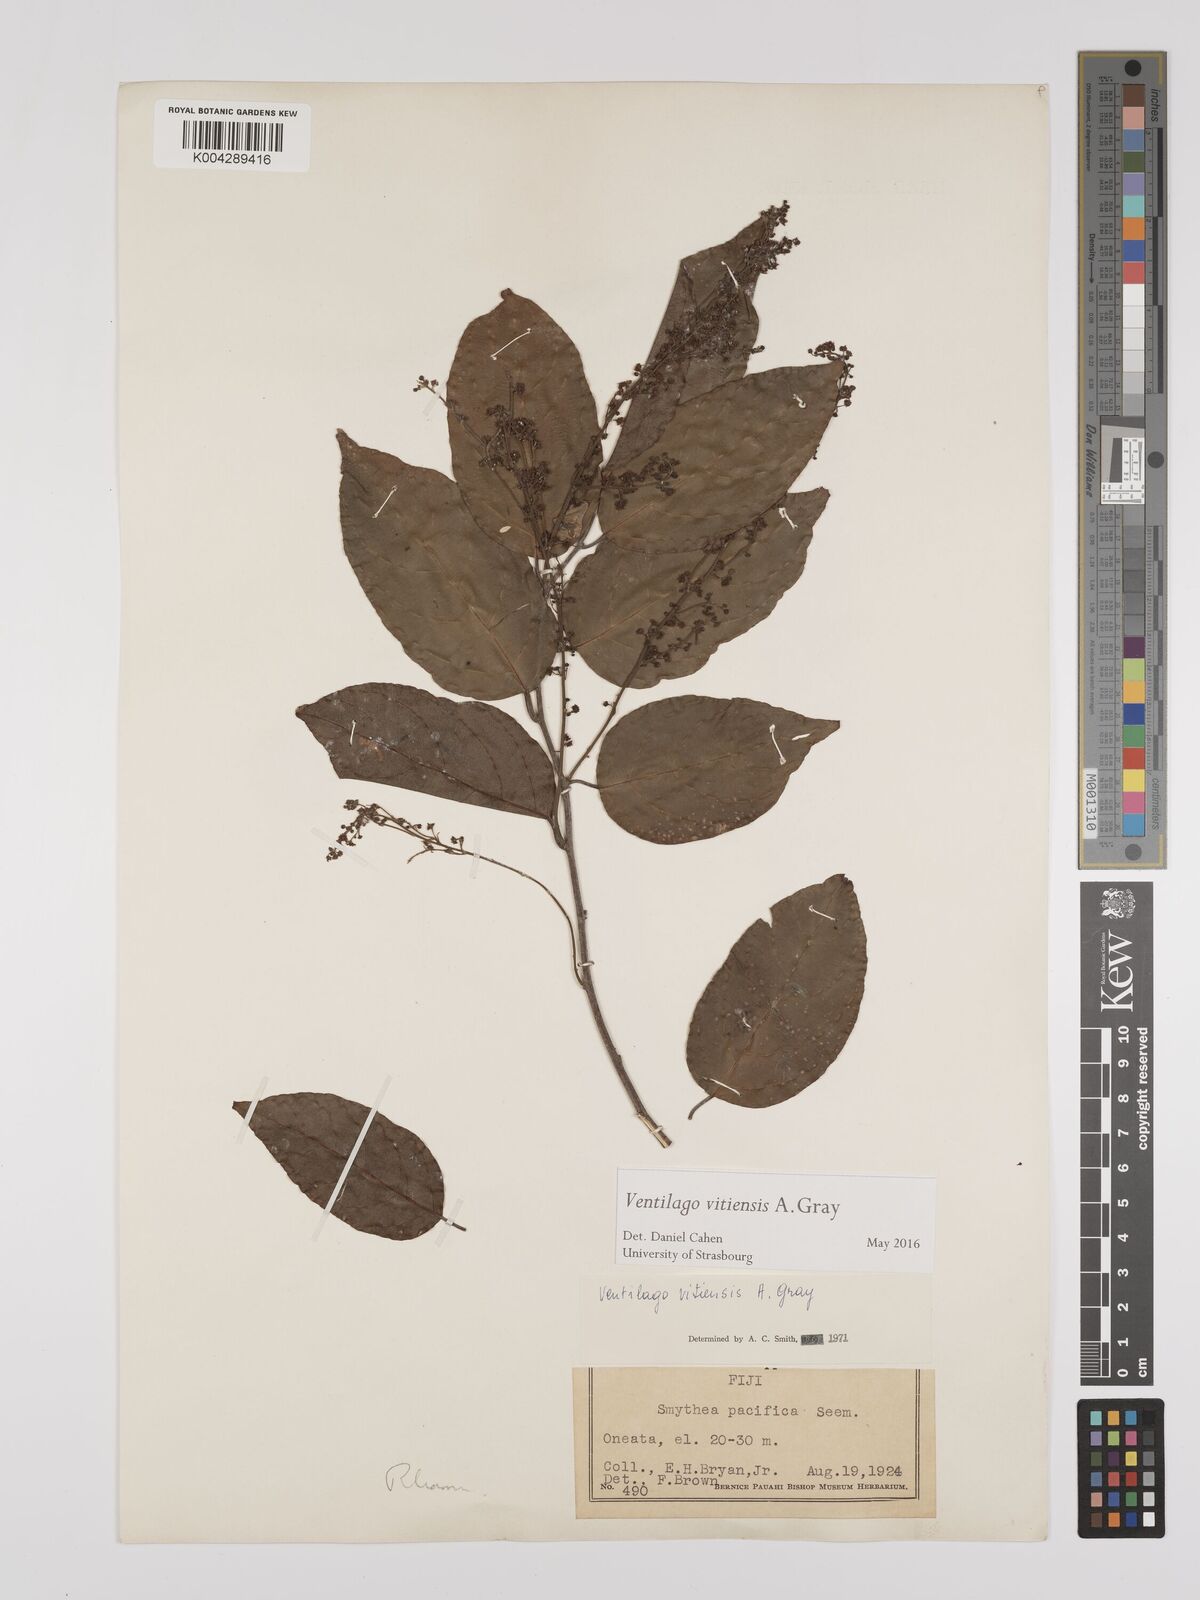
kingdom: Plantae
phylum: Tracheophyta
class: Magnoliopsida
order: Rosales
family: Rhamnaceae
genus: Ventilago
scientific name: Ventilago vitiensis
